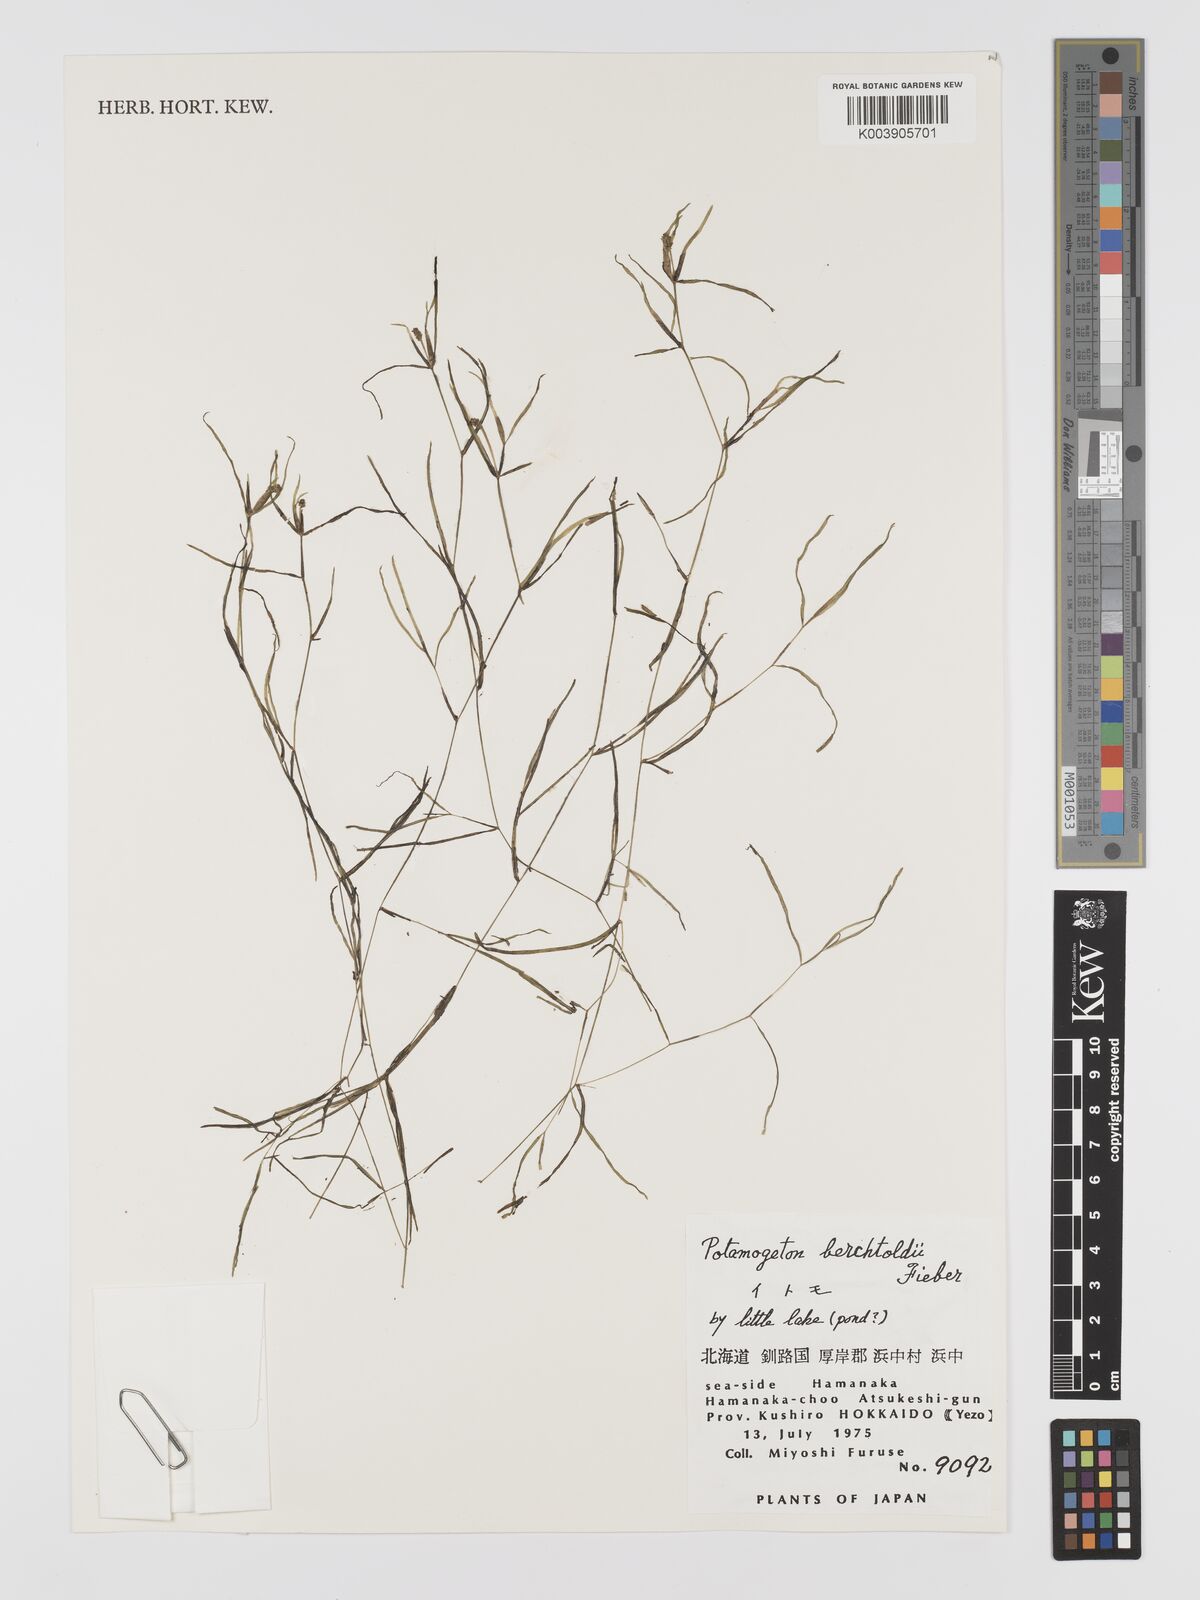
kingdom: Plantae
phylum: Tracheophyta
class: Liliopsida
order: Alismatales
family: Potamogetonaceae
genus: Potamogeton
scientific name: Potamogeton berchtoldii
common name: Small pondweed
